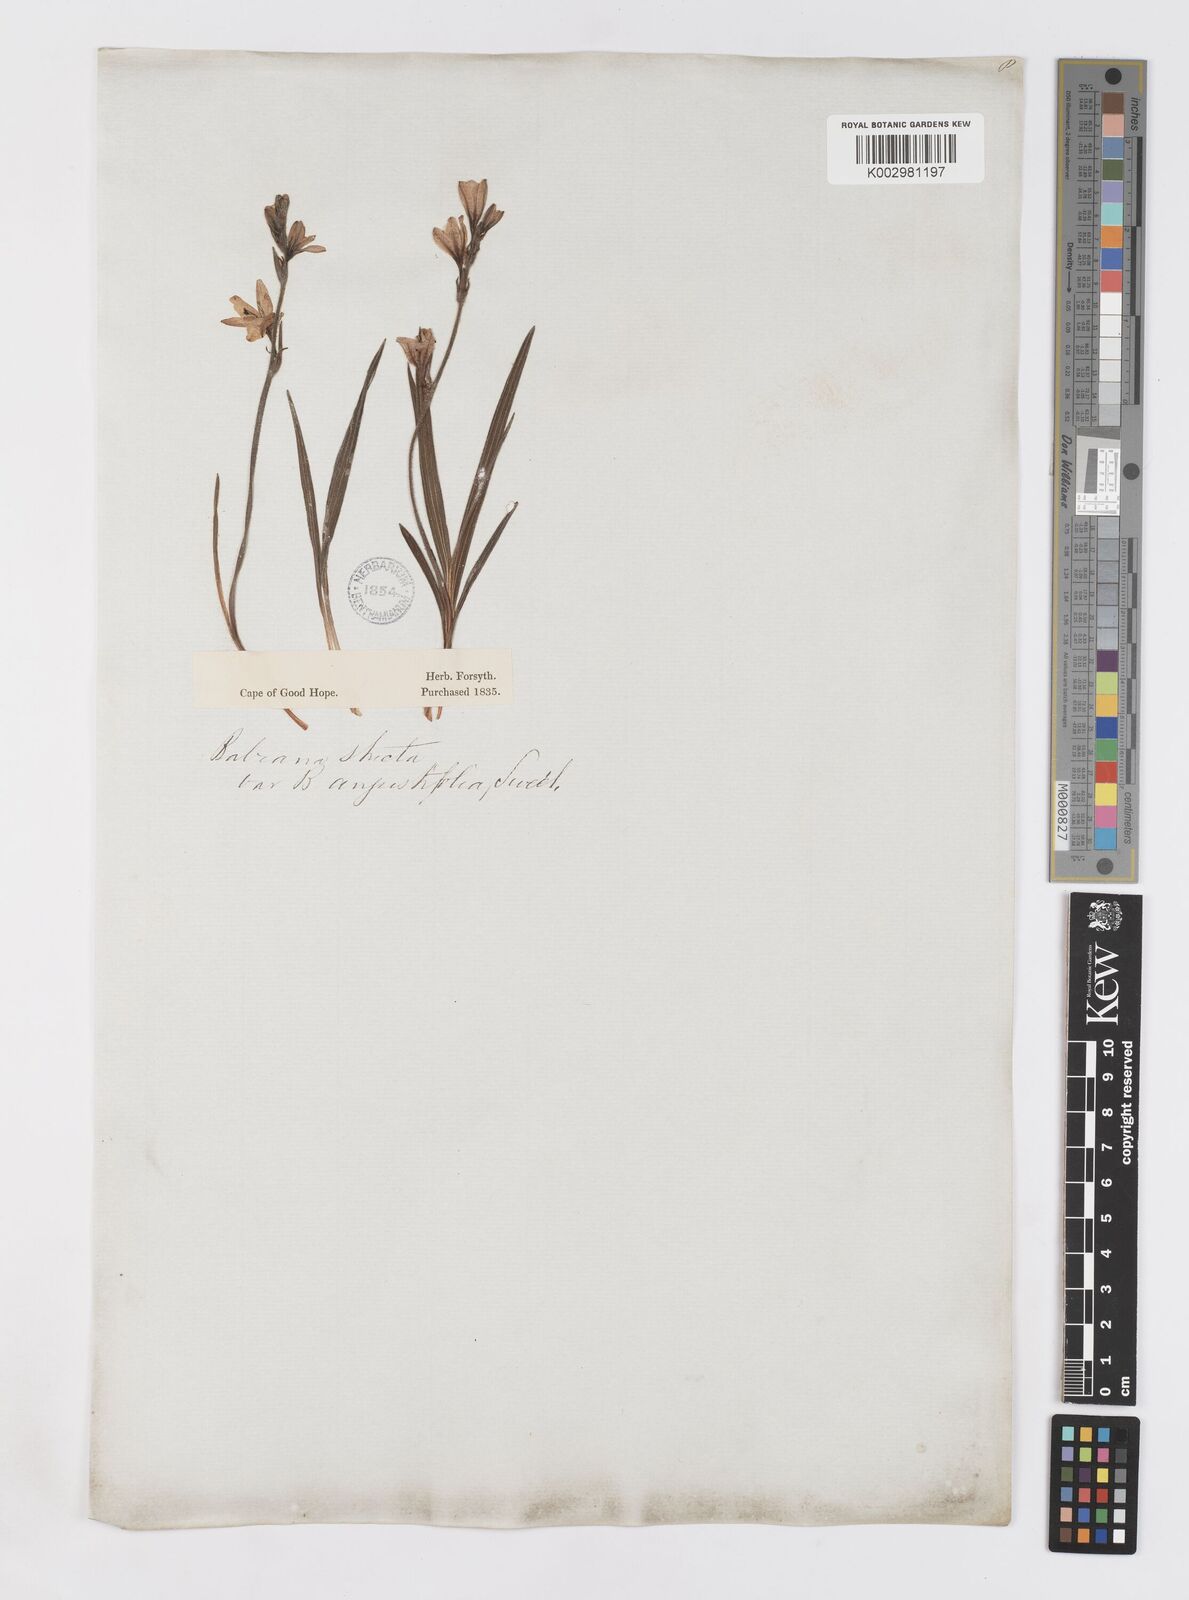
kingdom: Plantae
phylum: Tracheophyta
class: Liliopsida
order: Asparagales
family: Iridaceae
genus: Babiana
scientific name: Babiana angustifolia
